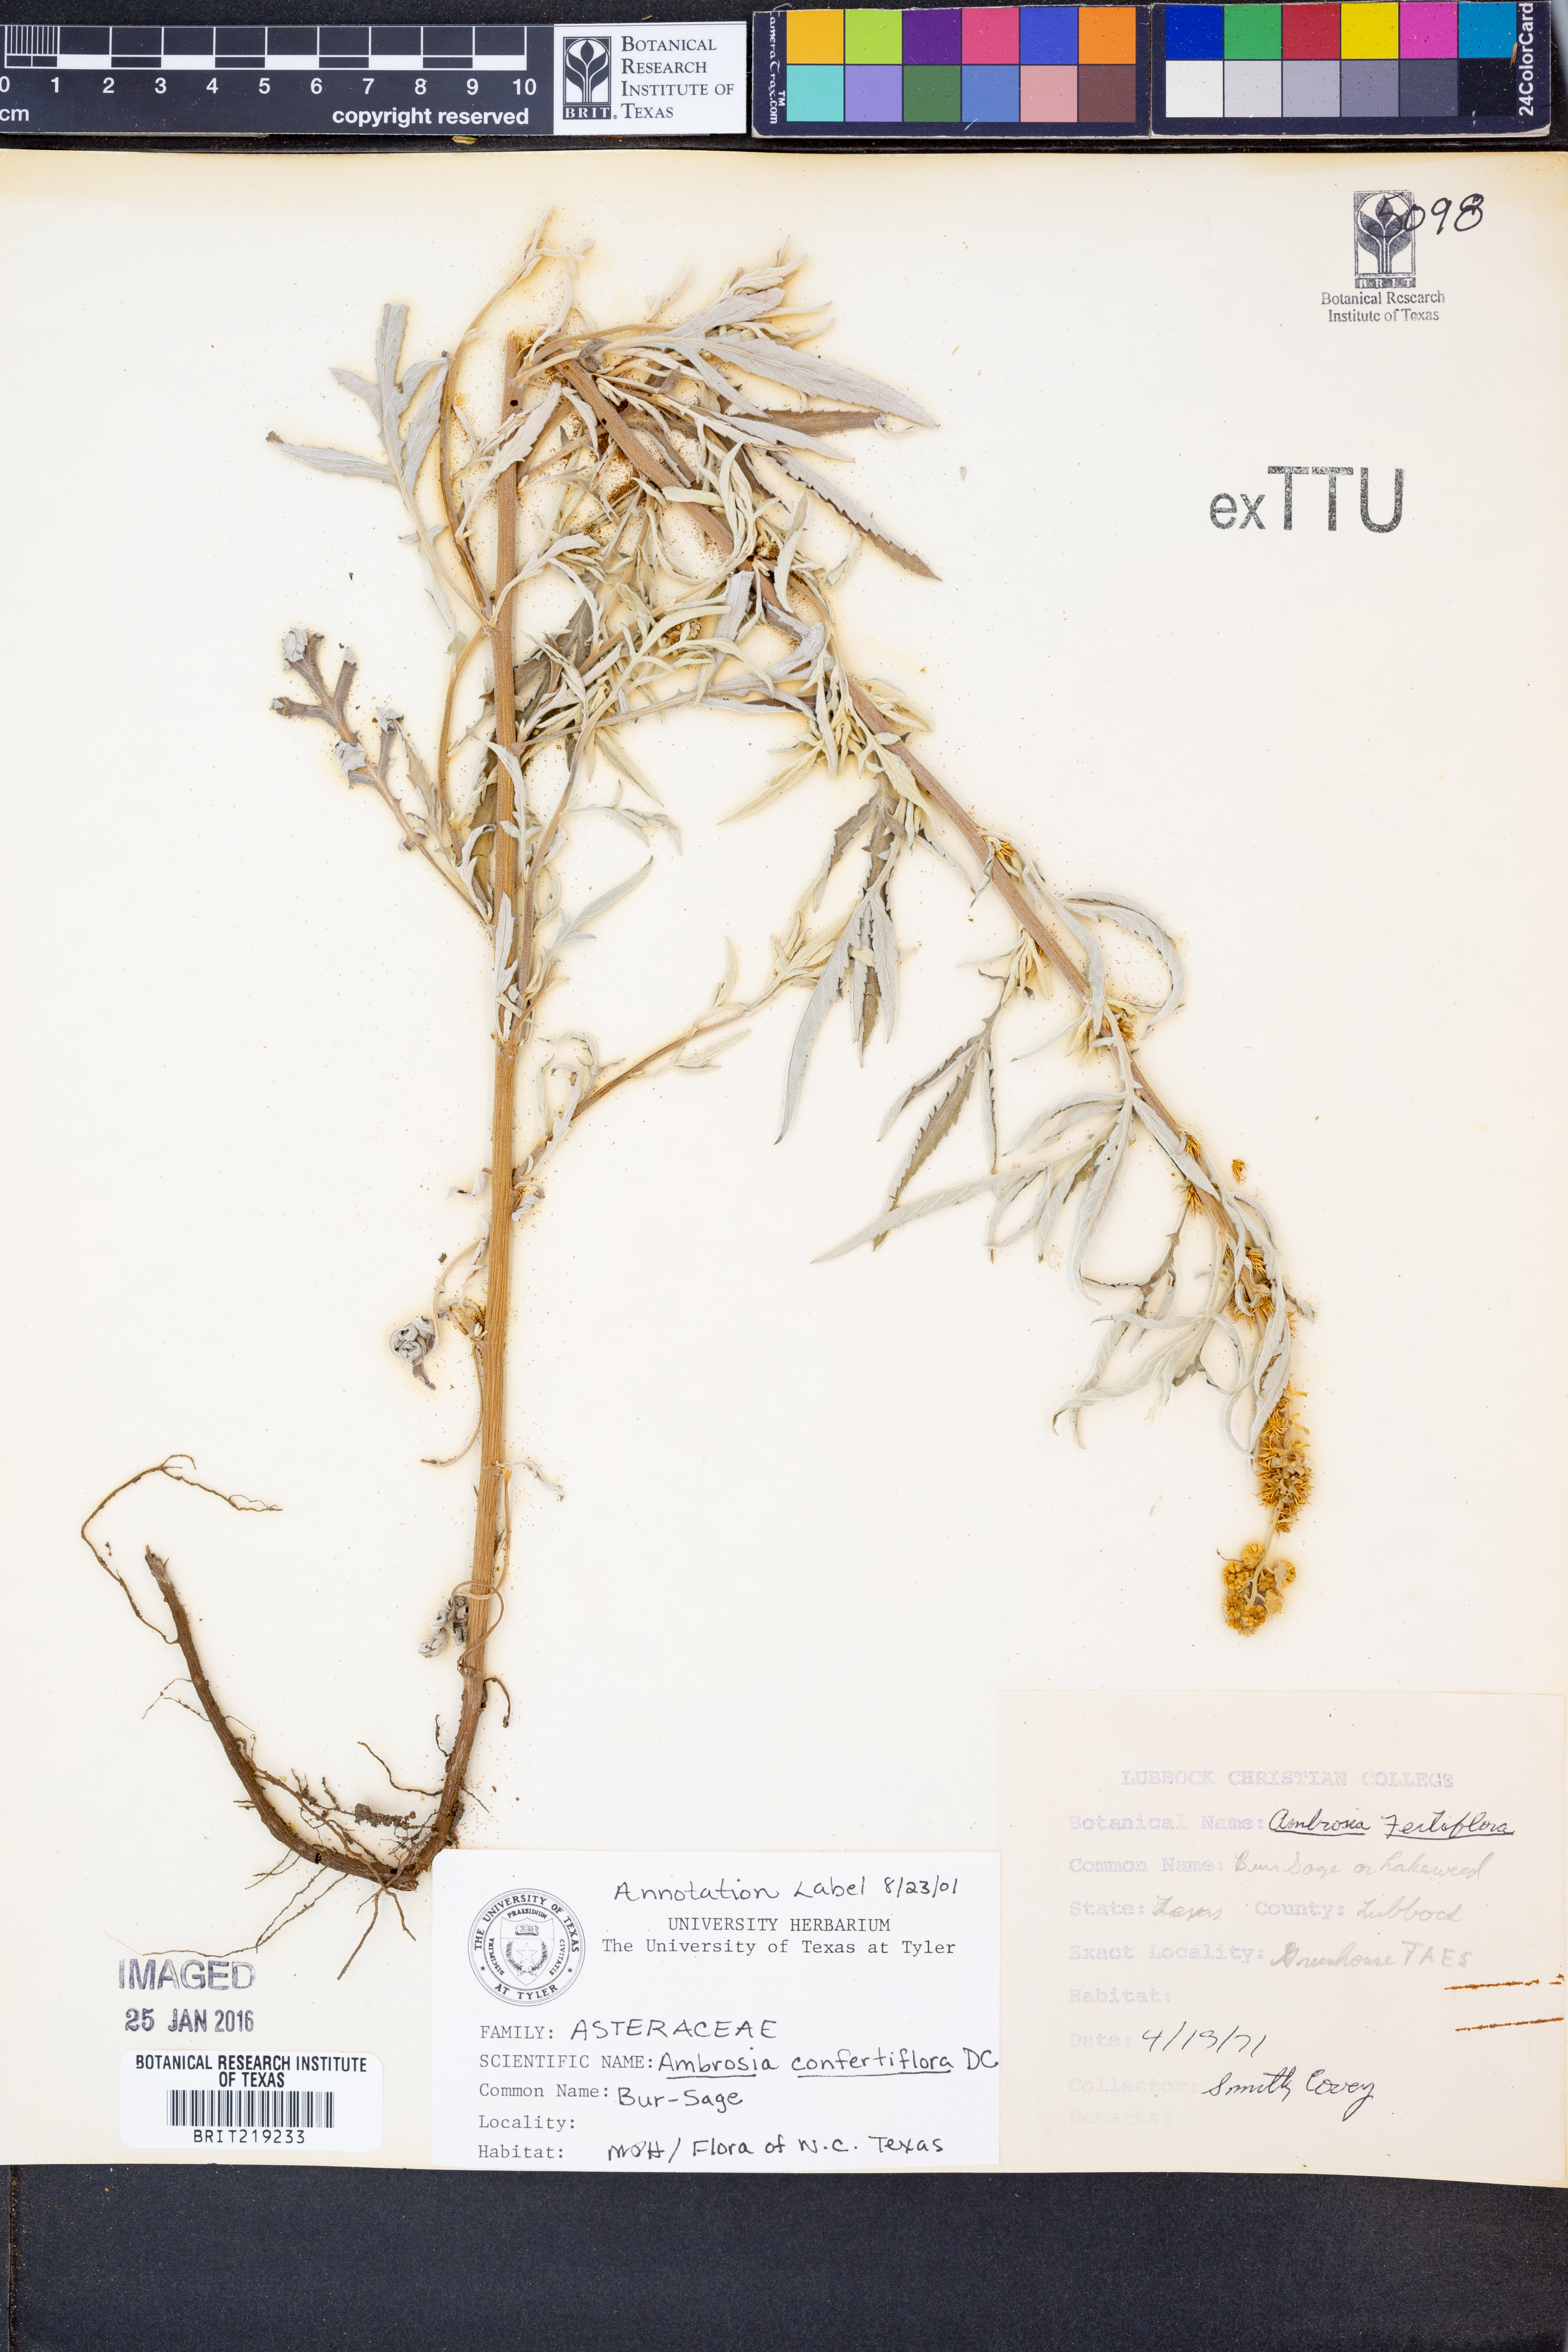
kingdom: Plantae
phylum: Tracheophyta
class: Magnoliopsida
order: Asterales
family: Asteraceae
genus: Ambrosia
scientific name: Ambrosia confertiflora
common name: Bur ragweed
